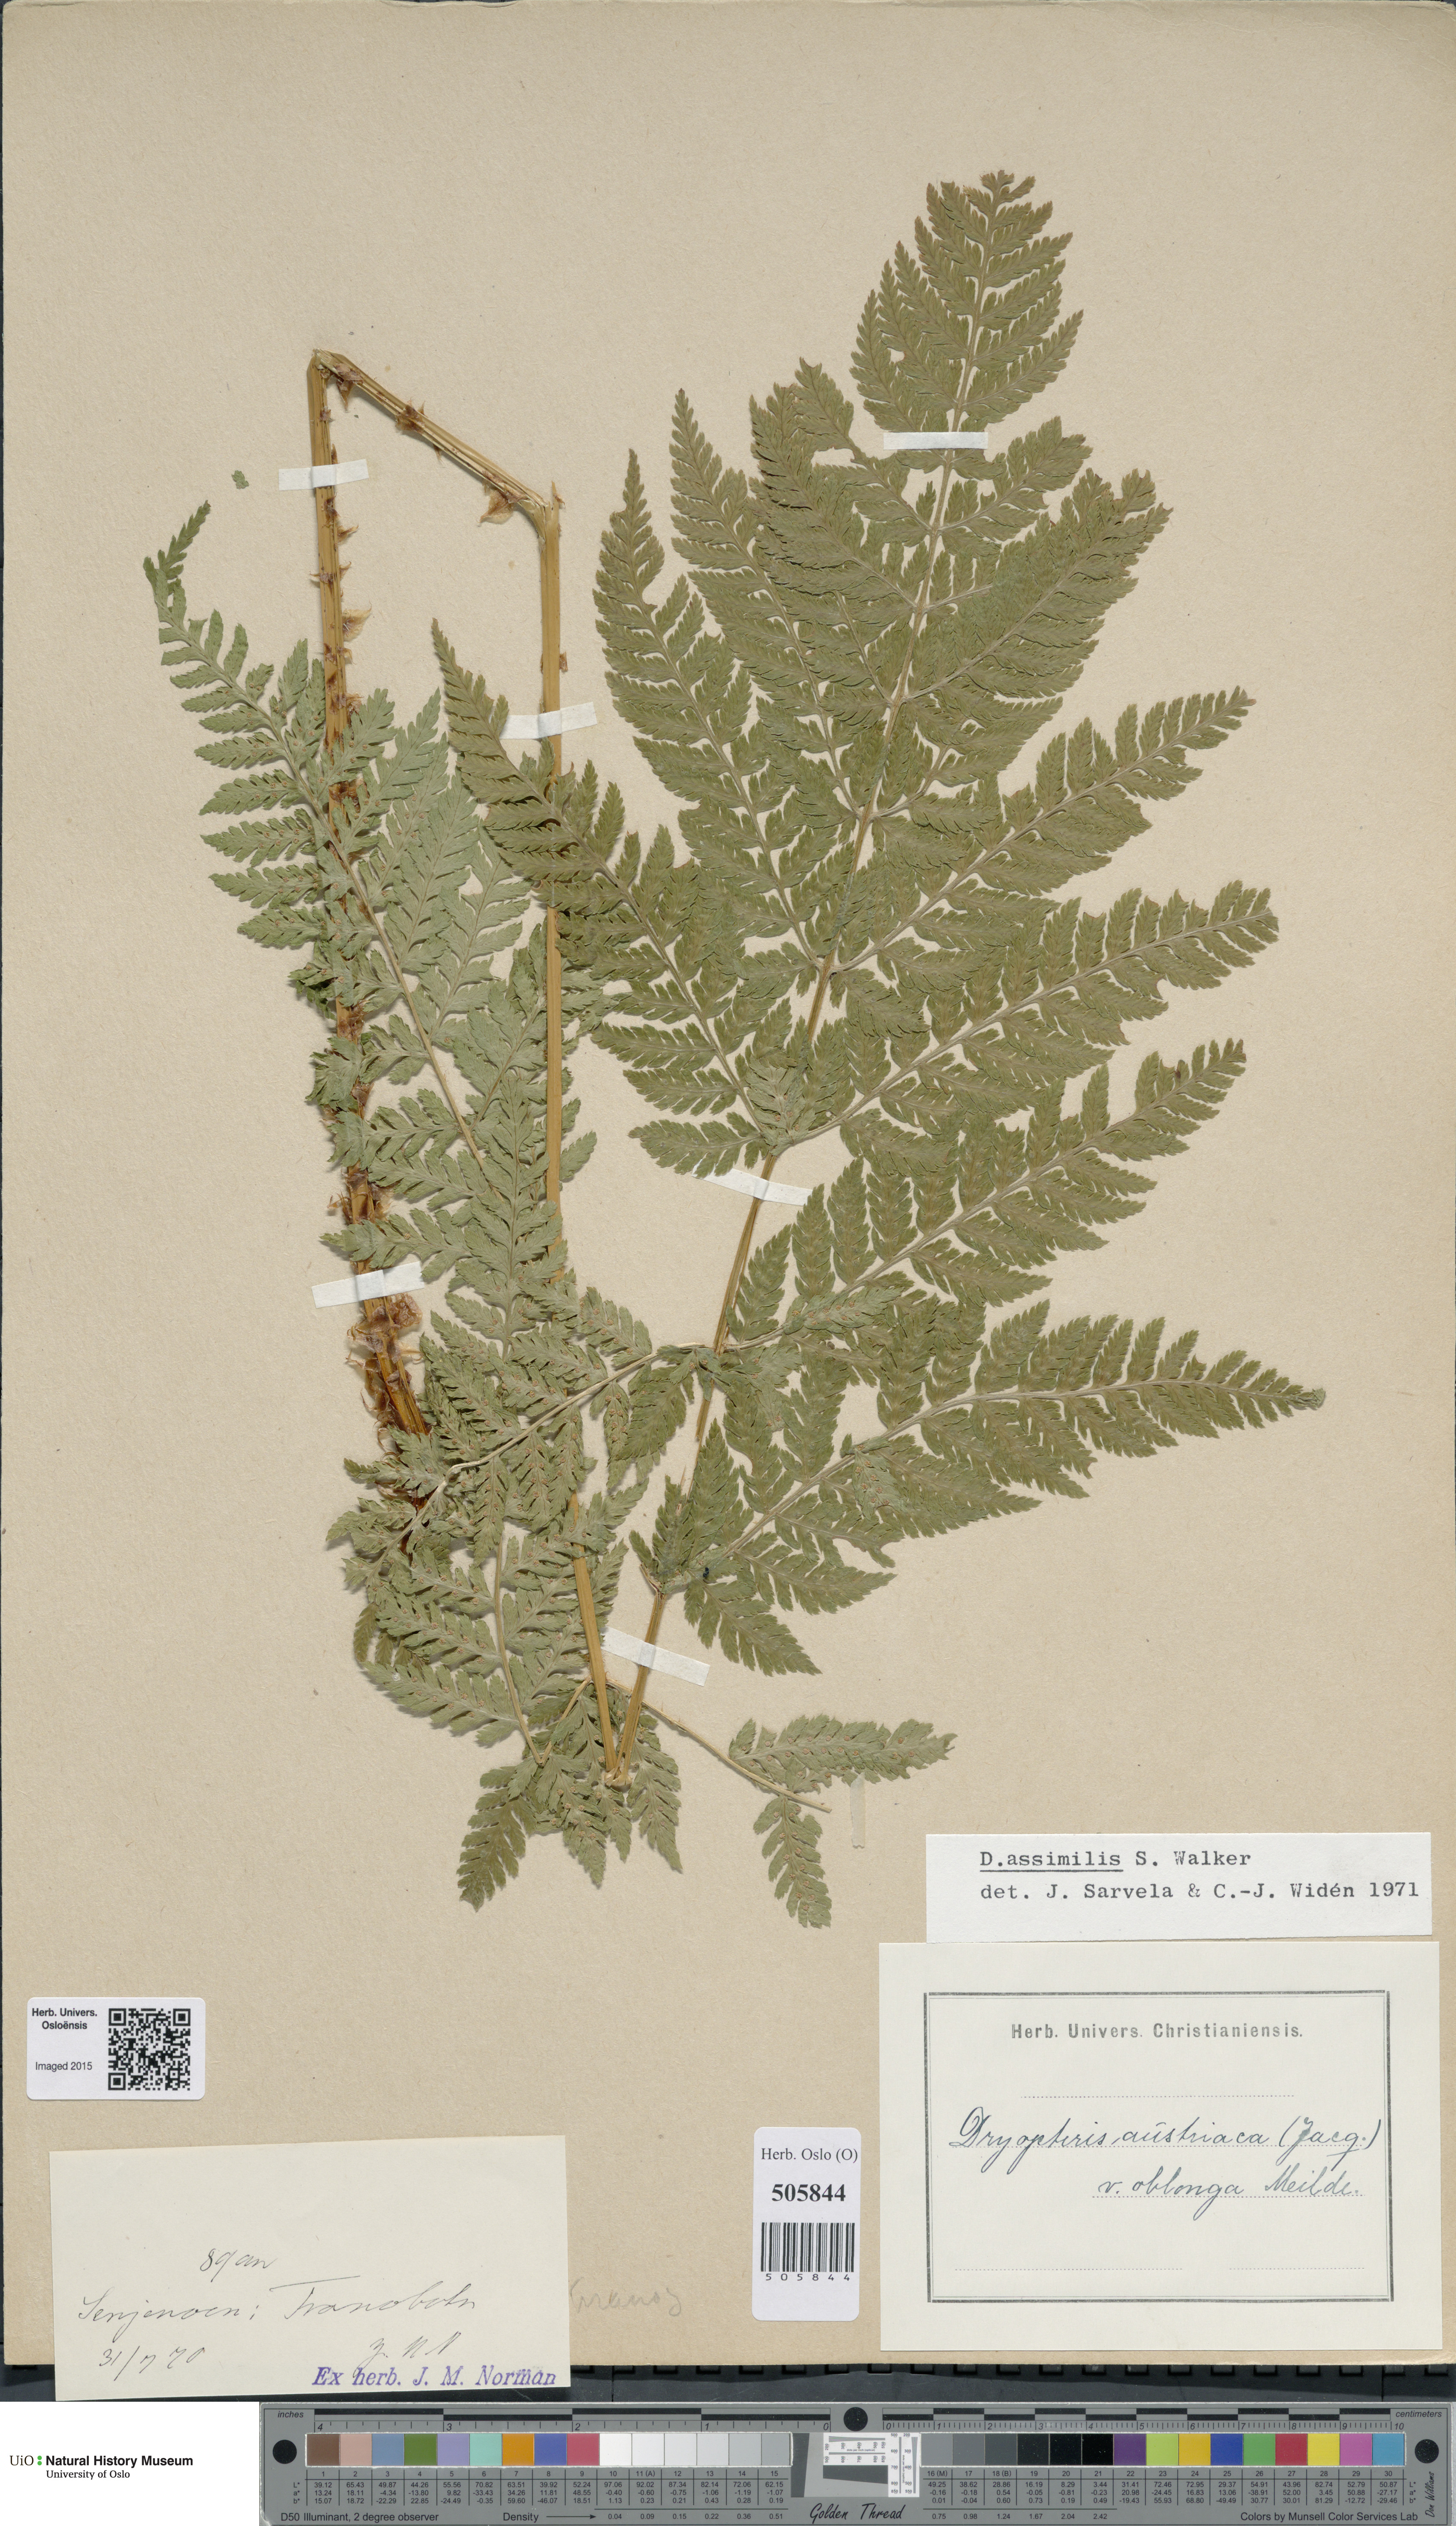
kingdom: Plantae
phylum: Tracheophyta
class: Polypodiopsida
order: Polypodiales
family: Dryopteridaceae
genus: Dryopteris
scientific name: Dryopteris expansa
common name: Northern buckler fern
